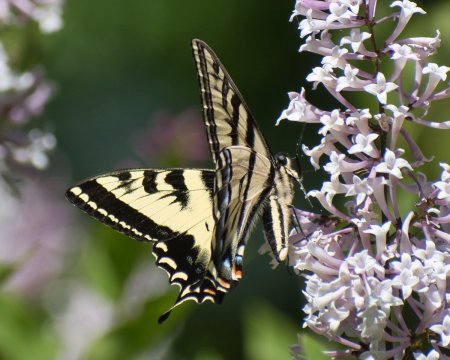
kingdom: Animalia
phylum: Arthropoda
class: Insecta
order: Lepidoptera
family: Papilionidae
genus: Pterourus
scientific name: Pterourus rutulus
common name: Western Tiger Swallowtail
